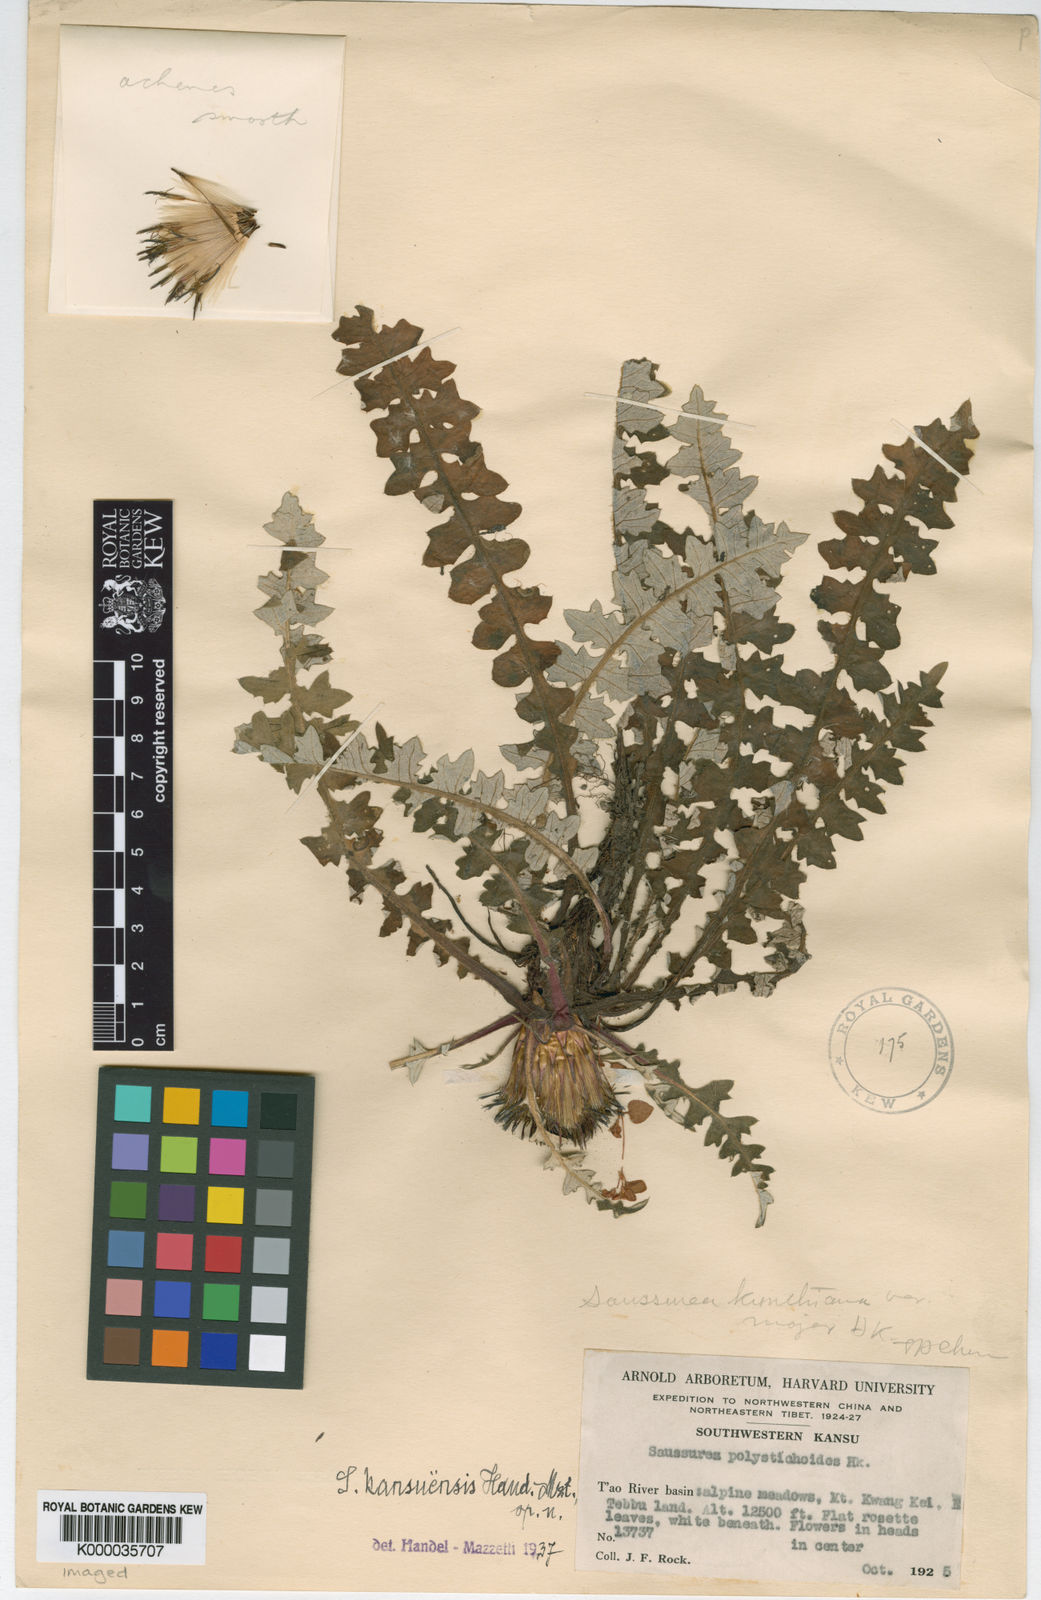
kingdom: Plantae
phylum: Tracheophyta
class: Magnoliopsida
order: Asterales
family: Asteraceae
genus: Saussurea
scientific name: Saussurea kansuensis
